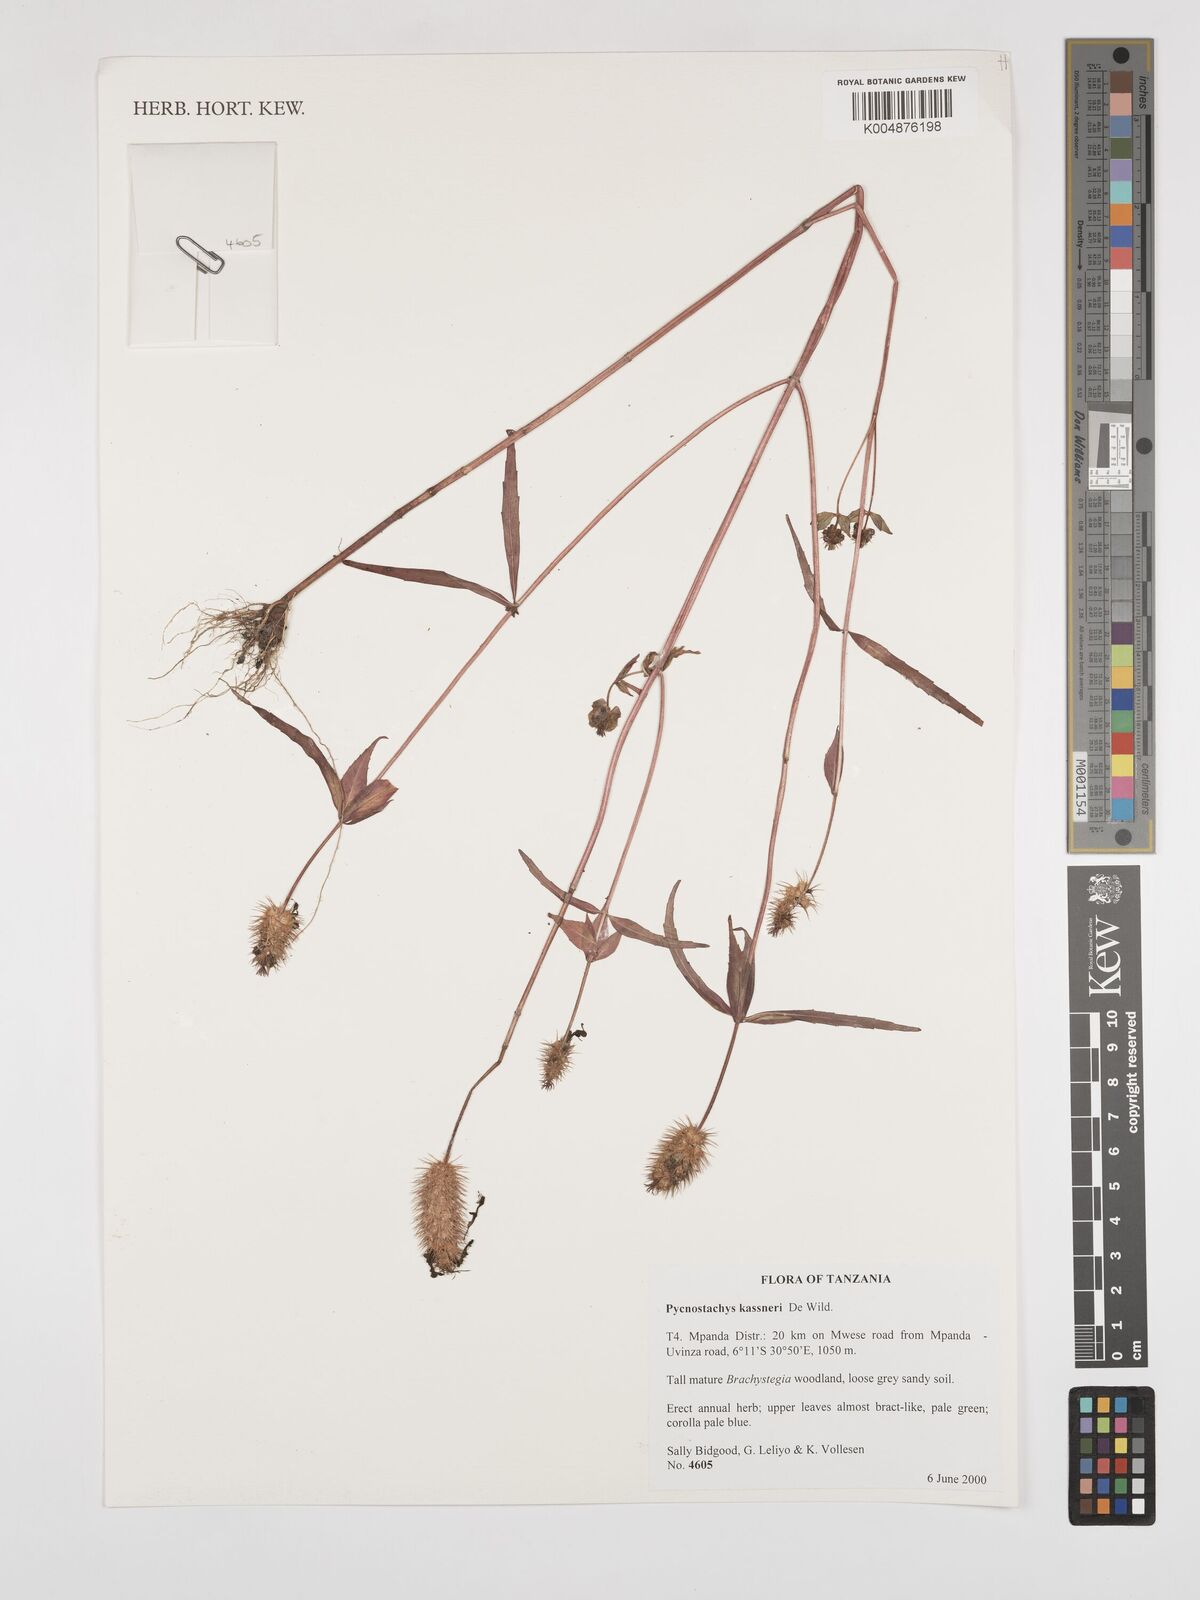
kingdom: Plantae
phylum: Tracheophyta
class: Magnoliopsida
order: Lamiales
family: Lamiaceae
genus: Coleus
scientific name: Coleus scruposus
